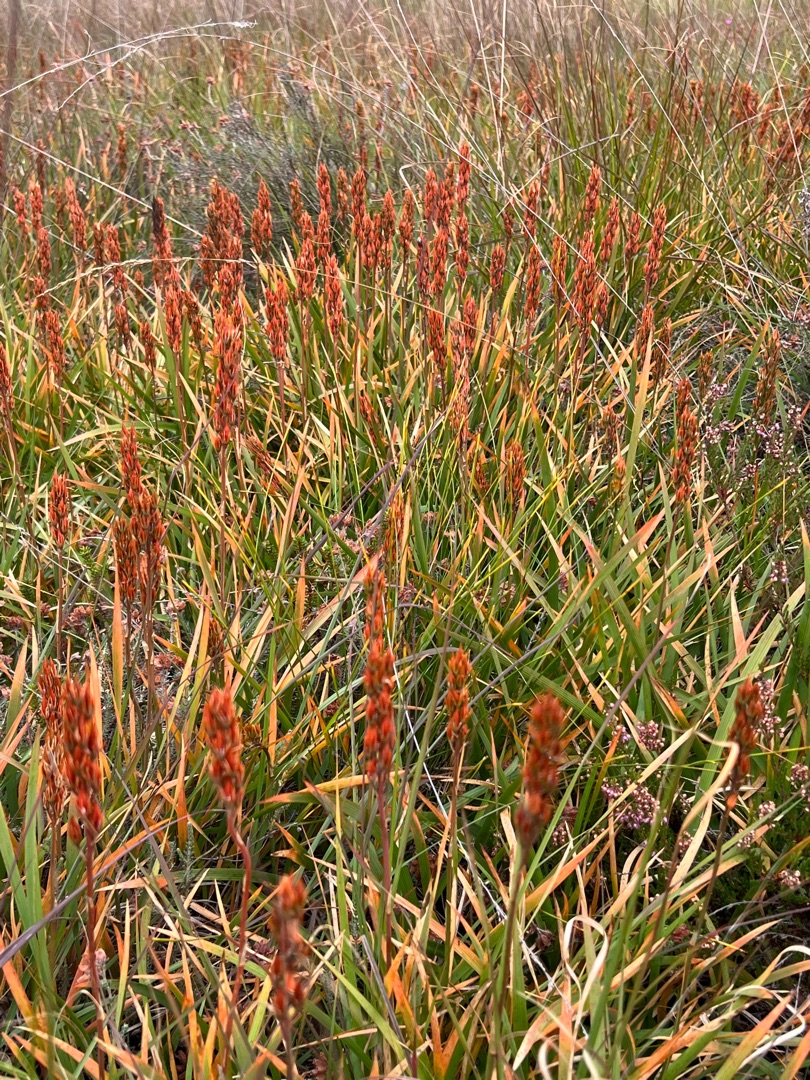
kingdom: Plantae
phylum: Tracheophyta
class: Liliopsida
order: Dioscoreales
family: Nartheciaceae
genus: Narthecium
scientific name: Narthecium ossifragum
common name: Benbræk
